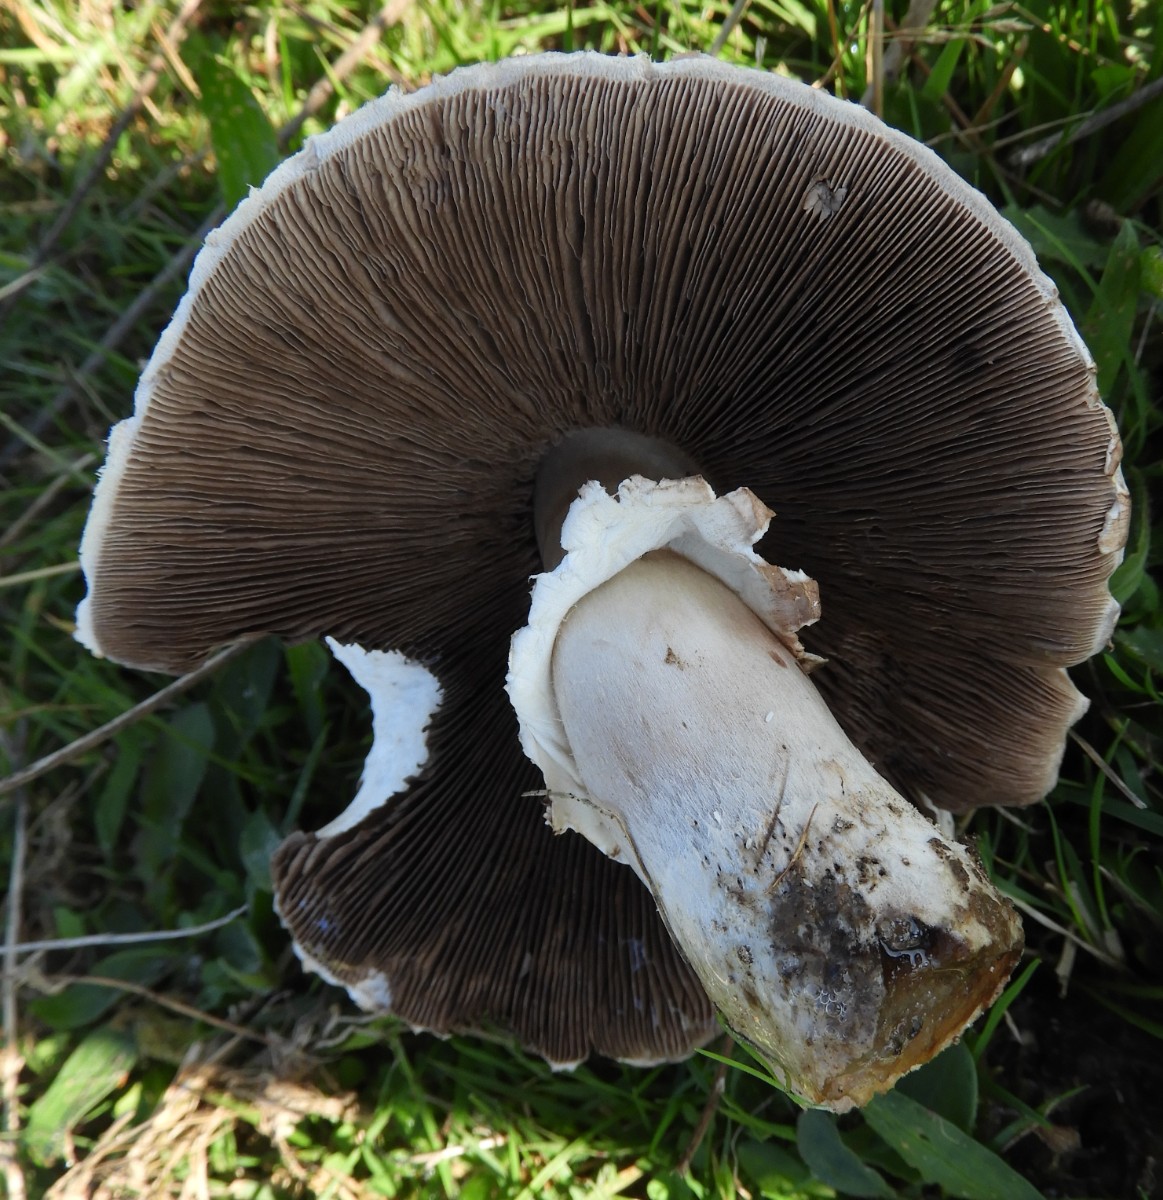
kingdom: Fungi
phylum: Basidiomycota
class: Agaricomycetes
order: Agaricales
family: Agaricaceae
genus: Agaricus
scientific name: Agaricus xanthodermus
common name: karbol-champignon
